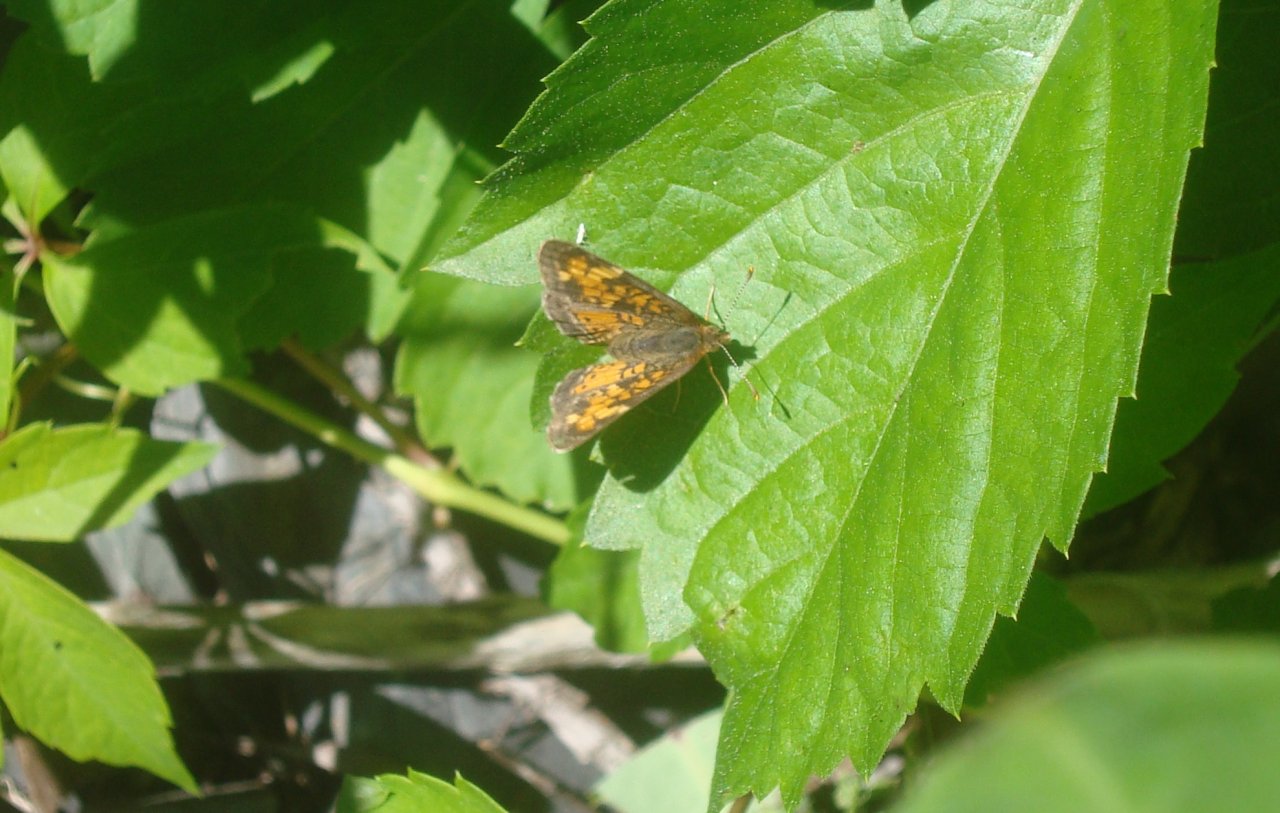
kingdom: Animalia
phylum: Arthropoda
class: Insecta
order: Lepidoptera
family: Nymphalidae
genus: Phyciodes
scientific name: Phyciodes tharos
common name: Northern Crescent
